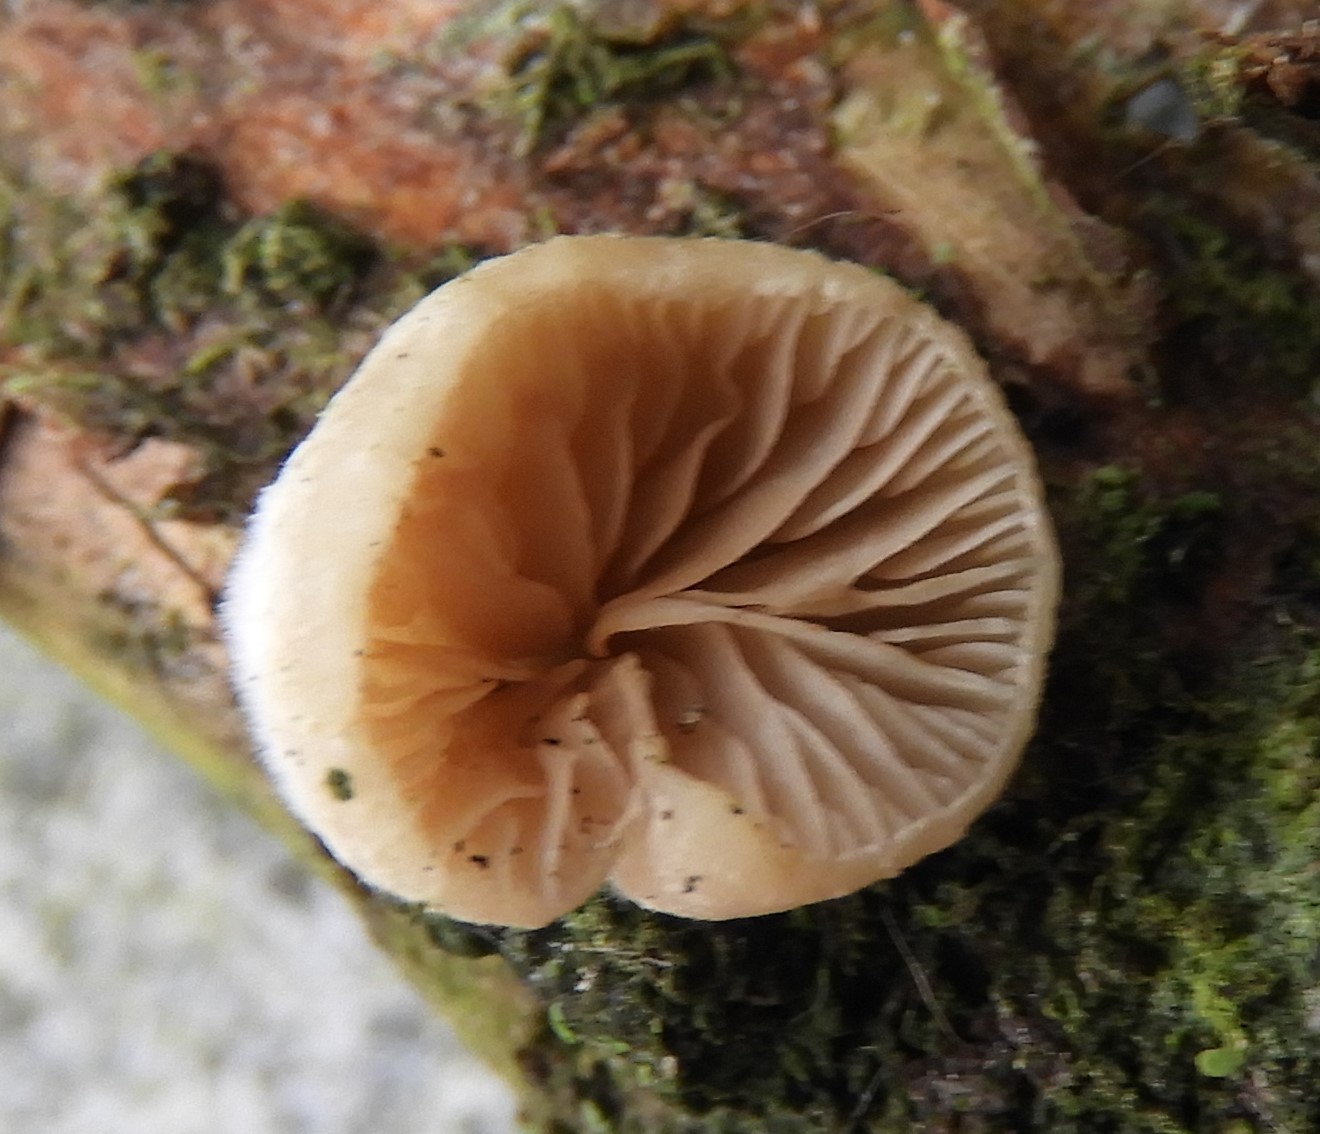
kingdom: Fungi
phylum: Basidiomycota
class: Agaricomycetes
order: Agaricales
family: Crepidotaceae
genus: Crepidotus
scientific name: Crepidotus cesatii
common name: almindelig muslingesvamp
